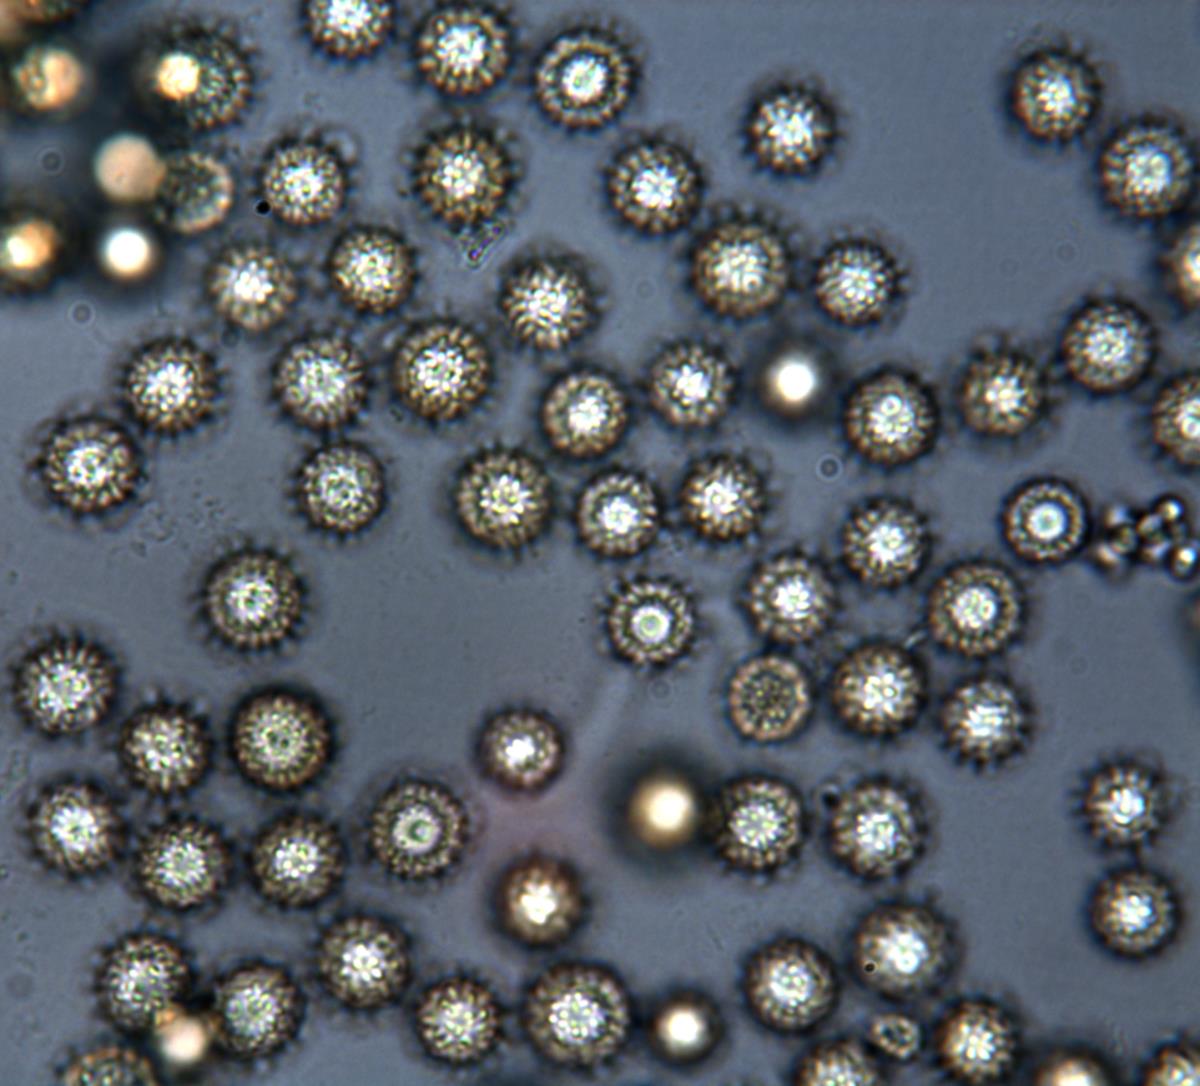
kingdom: Fungi
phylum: Basidiomycota
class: Agaricomycetes
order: Boletales
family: Sclerodermataceae
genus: Pisolithus
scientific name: Pisolithus
